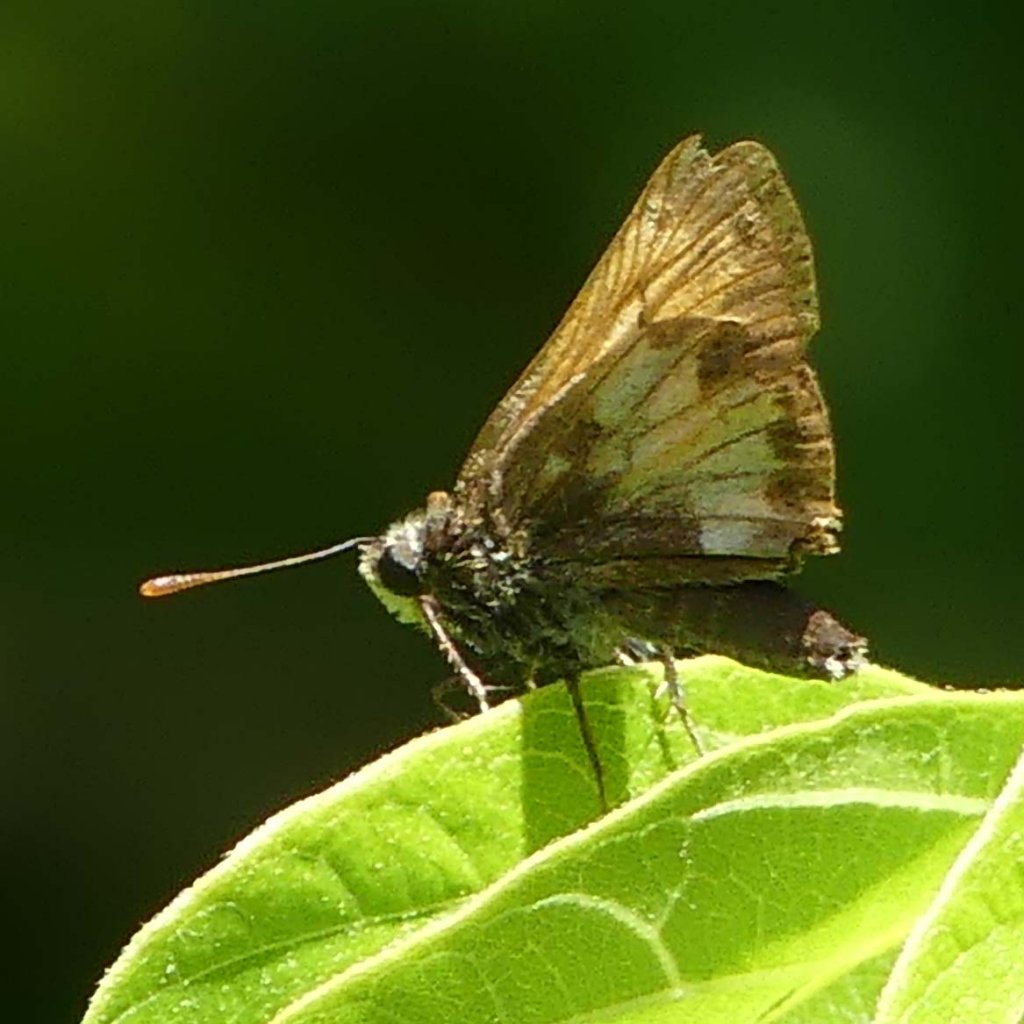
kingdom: Animalia
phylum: Arthropoda
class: Insecta
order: Lepidoptera
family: Hesperiidae
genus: Lon
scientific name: Lon hobomok
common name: Hobomok Skipper
